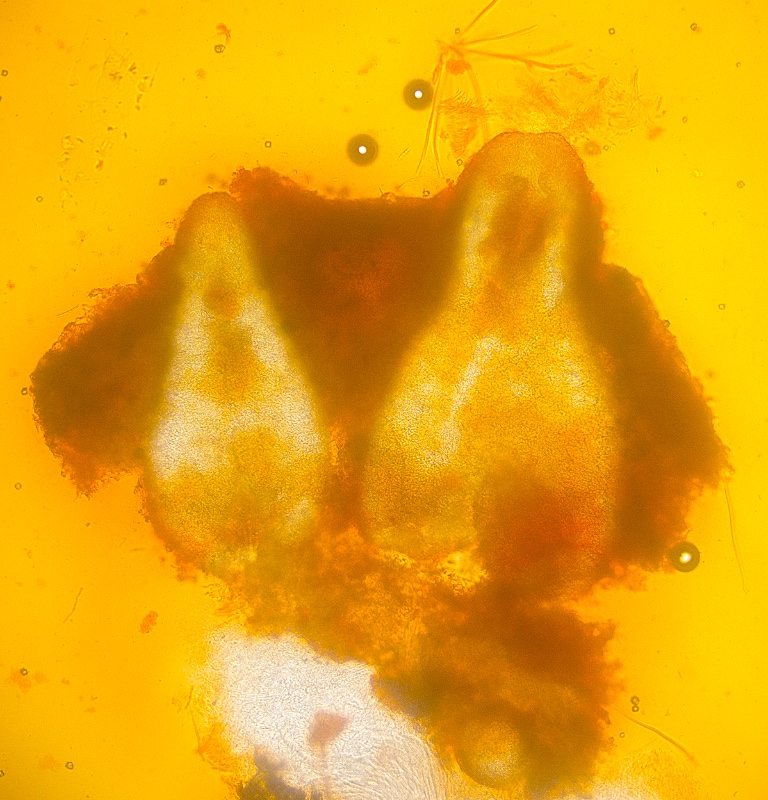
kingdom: Fungi
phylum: Ascomycota
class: Sordariomycetes
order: Hypocreales
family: Ophiocordycipitaceae
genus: Tolypocladium
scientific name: Tolypocladium inflatum
